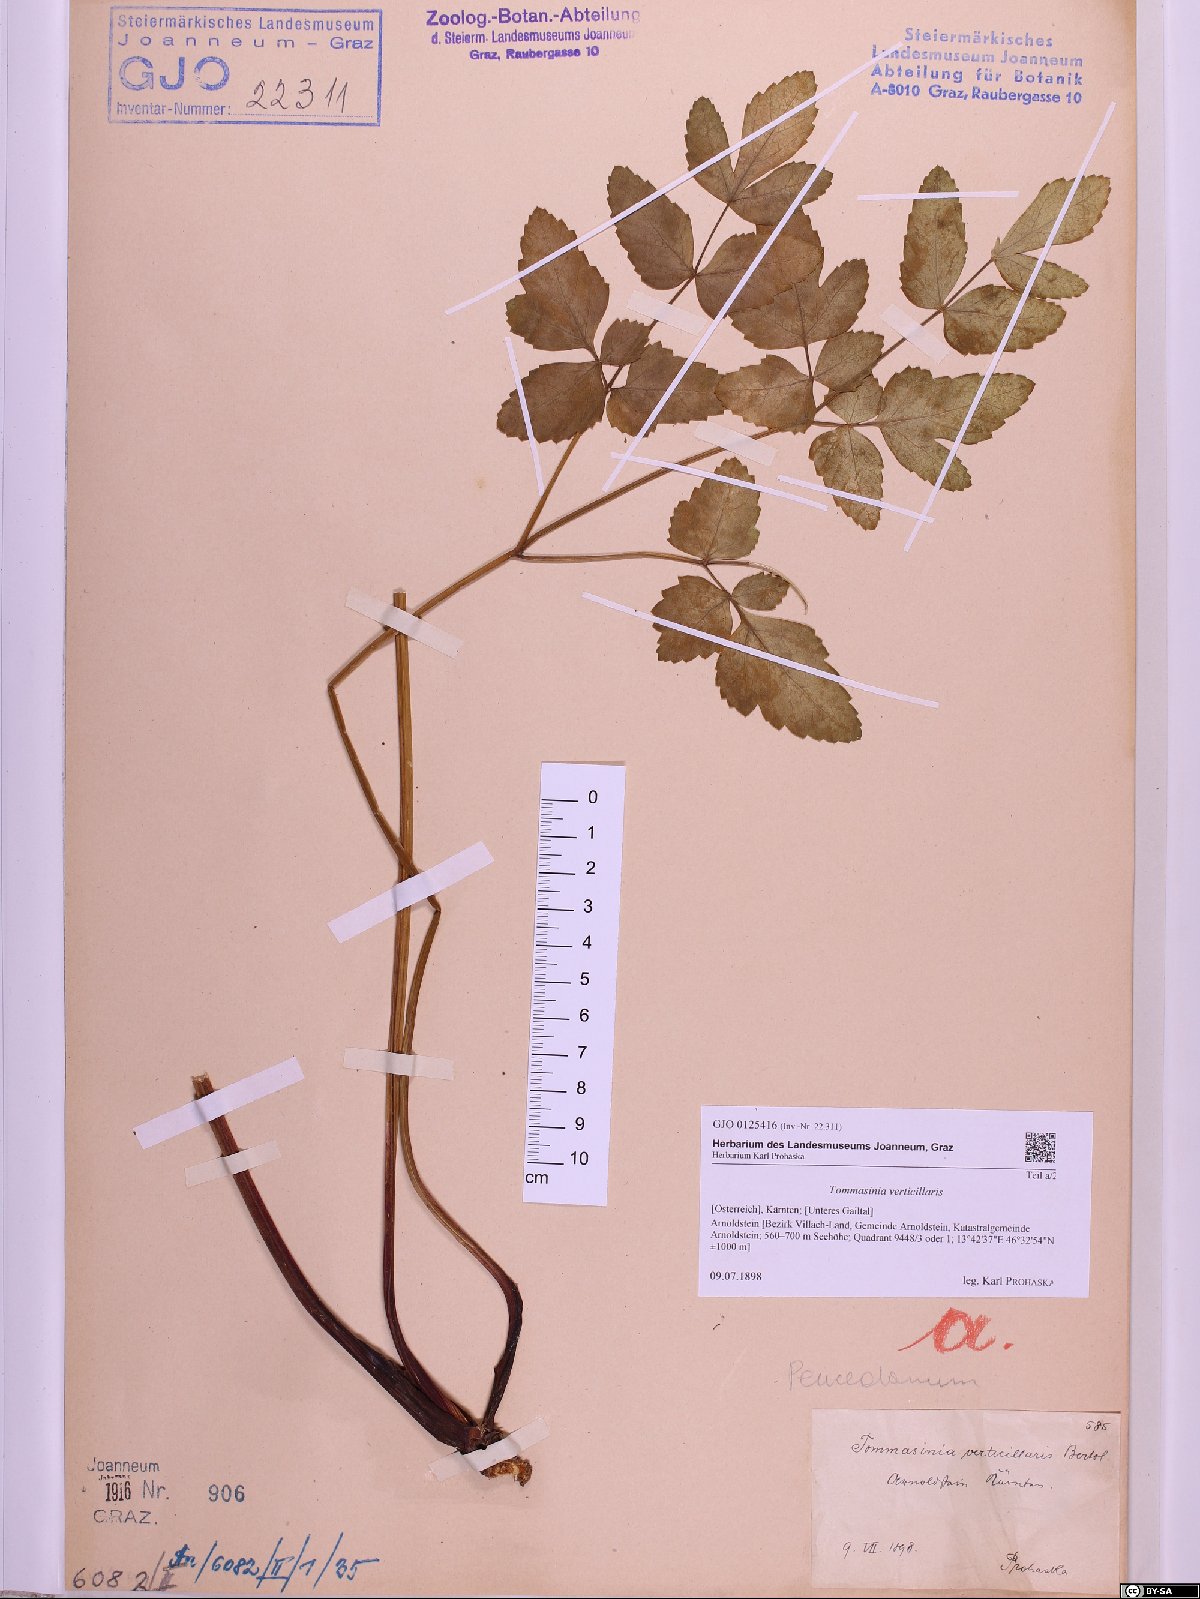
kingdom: Plantae
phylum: Tracheophyta
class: Magnoliopsida
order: Apiales
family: Apiaceae
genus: Tommasinia
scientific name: Tommasinia altissima
